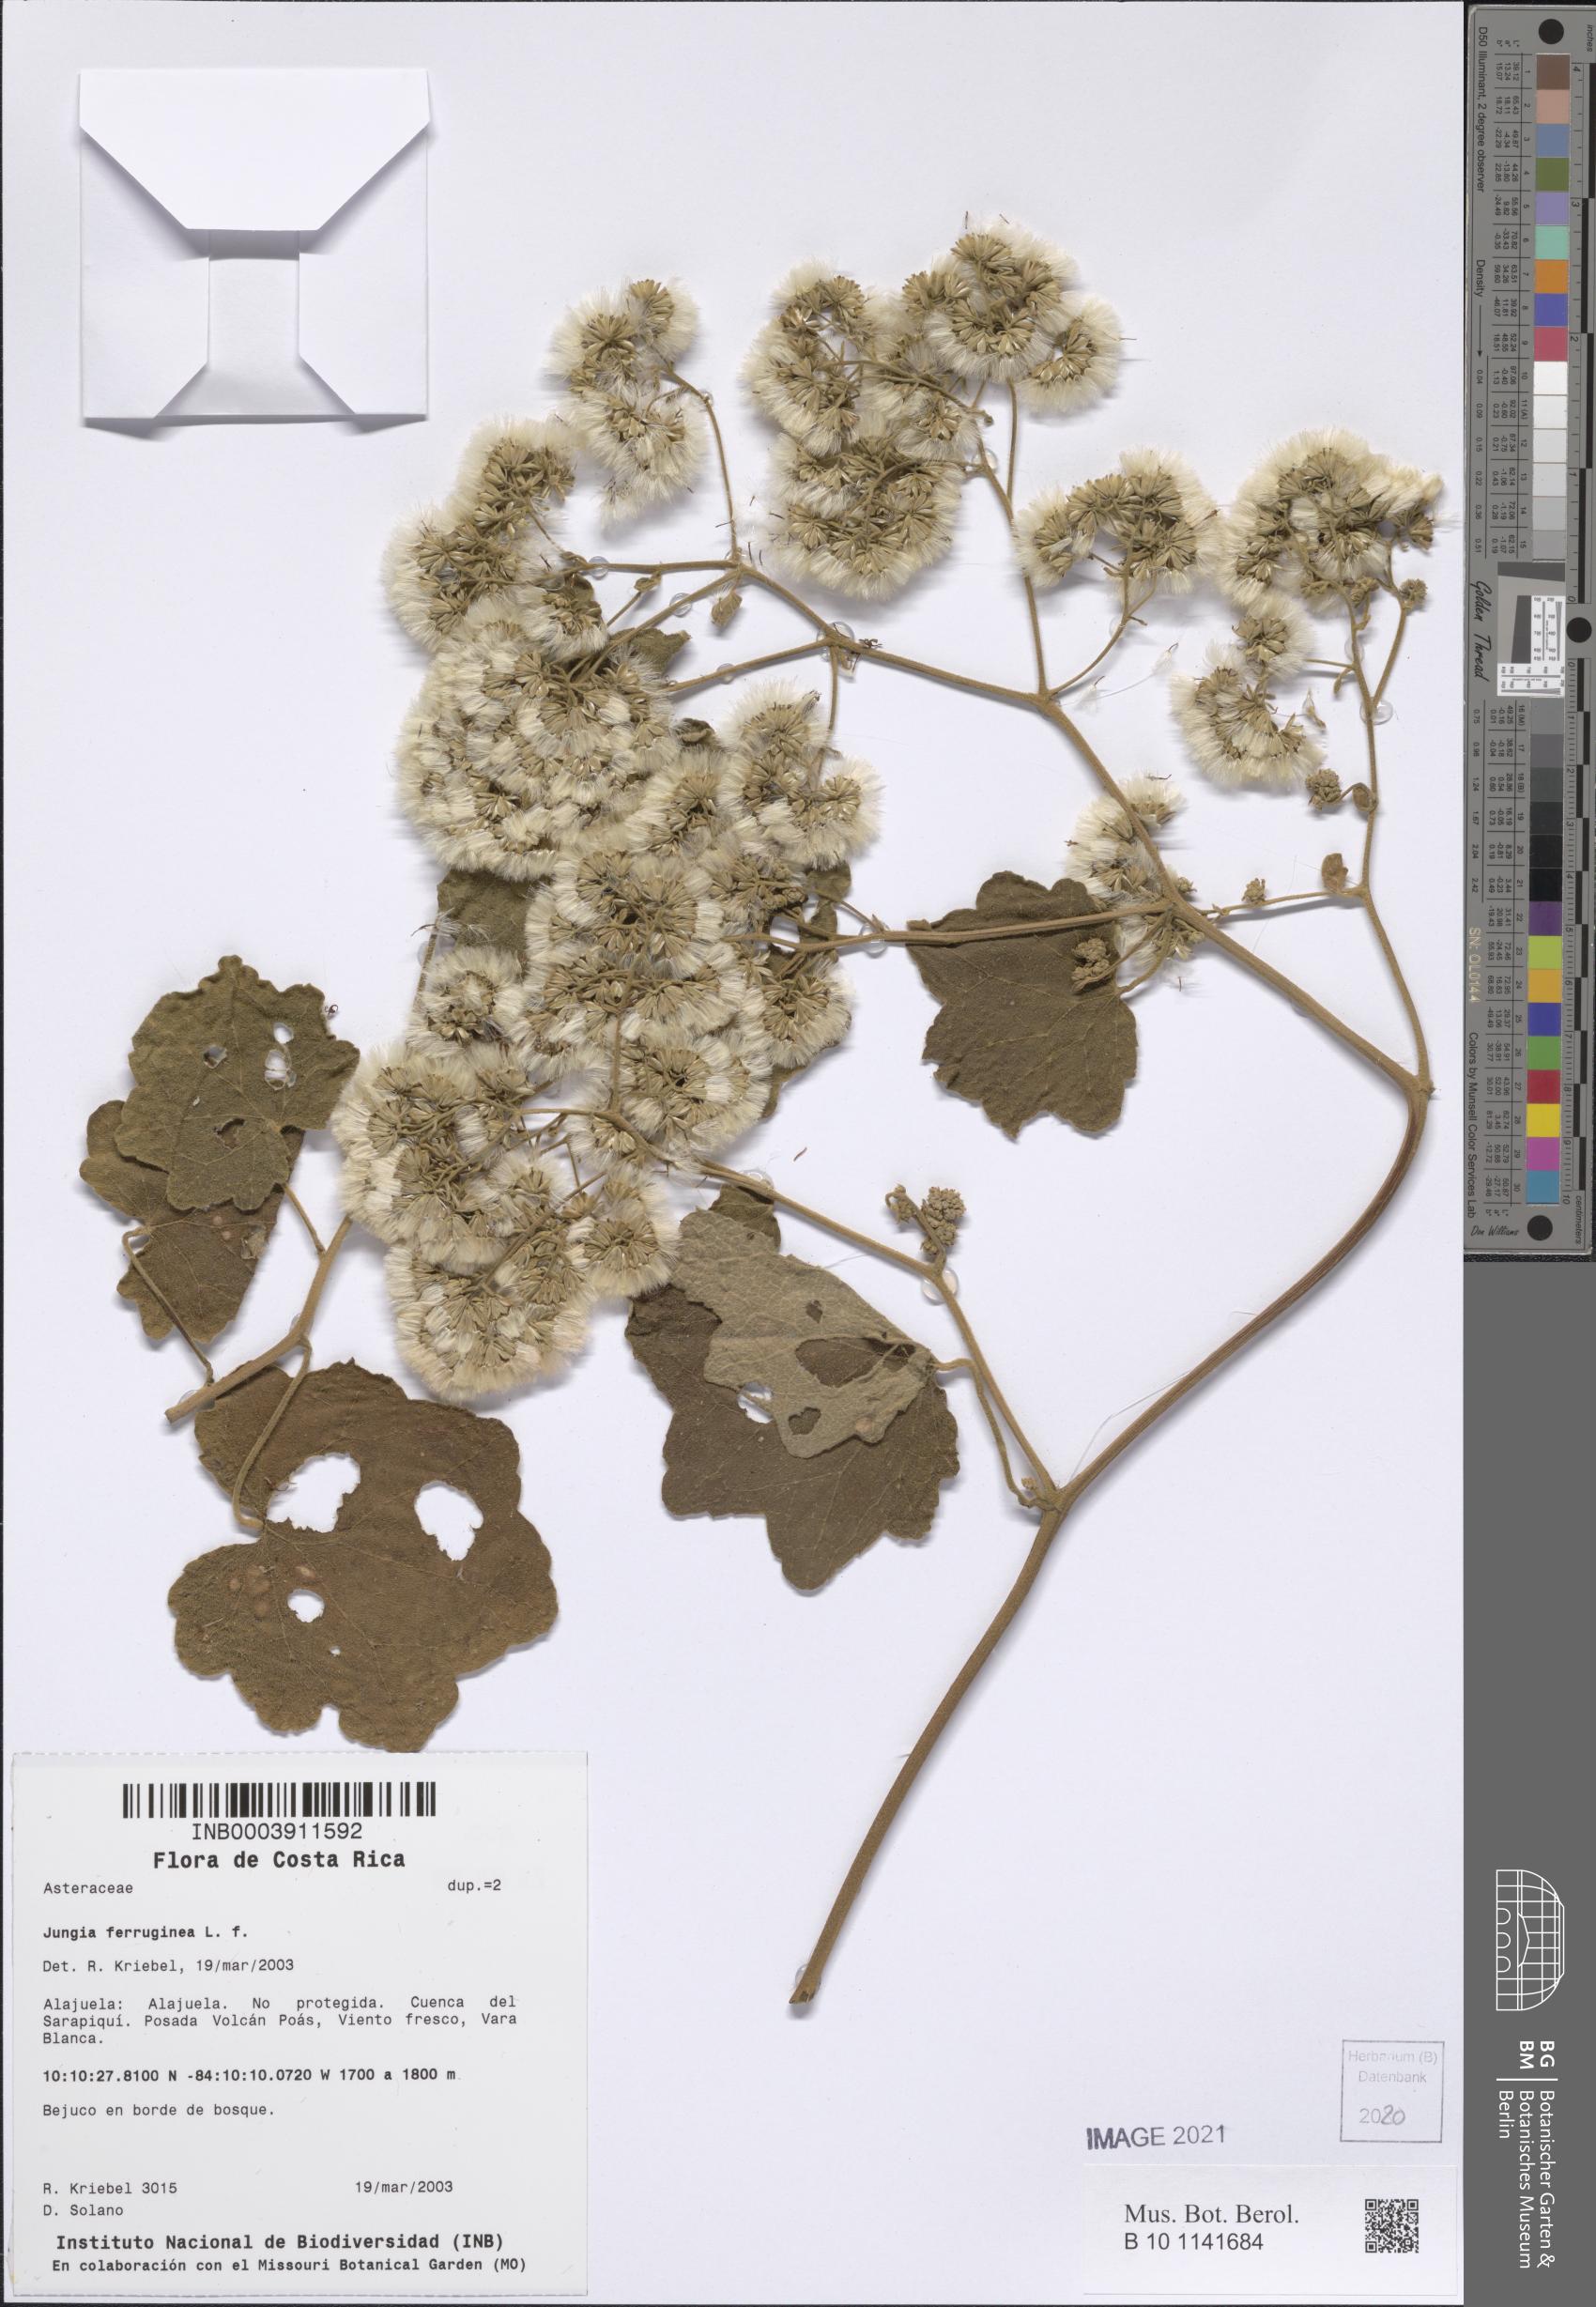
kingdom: Plantae
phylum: Tracheophyta
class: Magnoliopsida
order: Asterales
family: Asteraceae
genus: Jungia
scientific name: Jungia ferruginea
